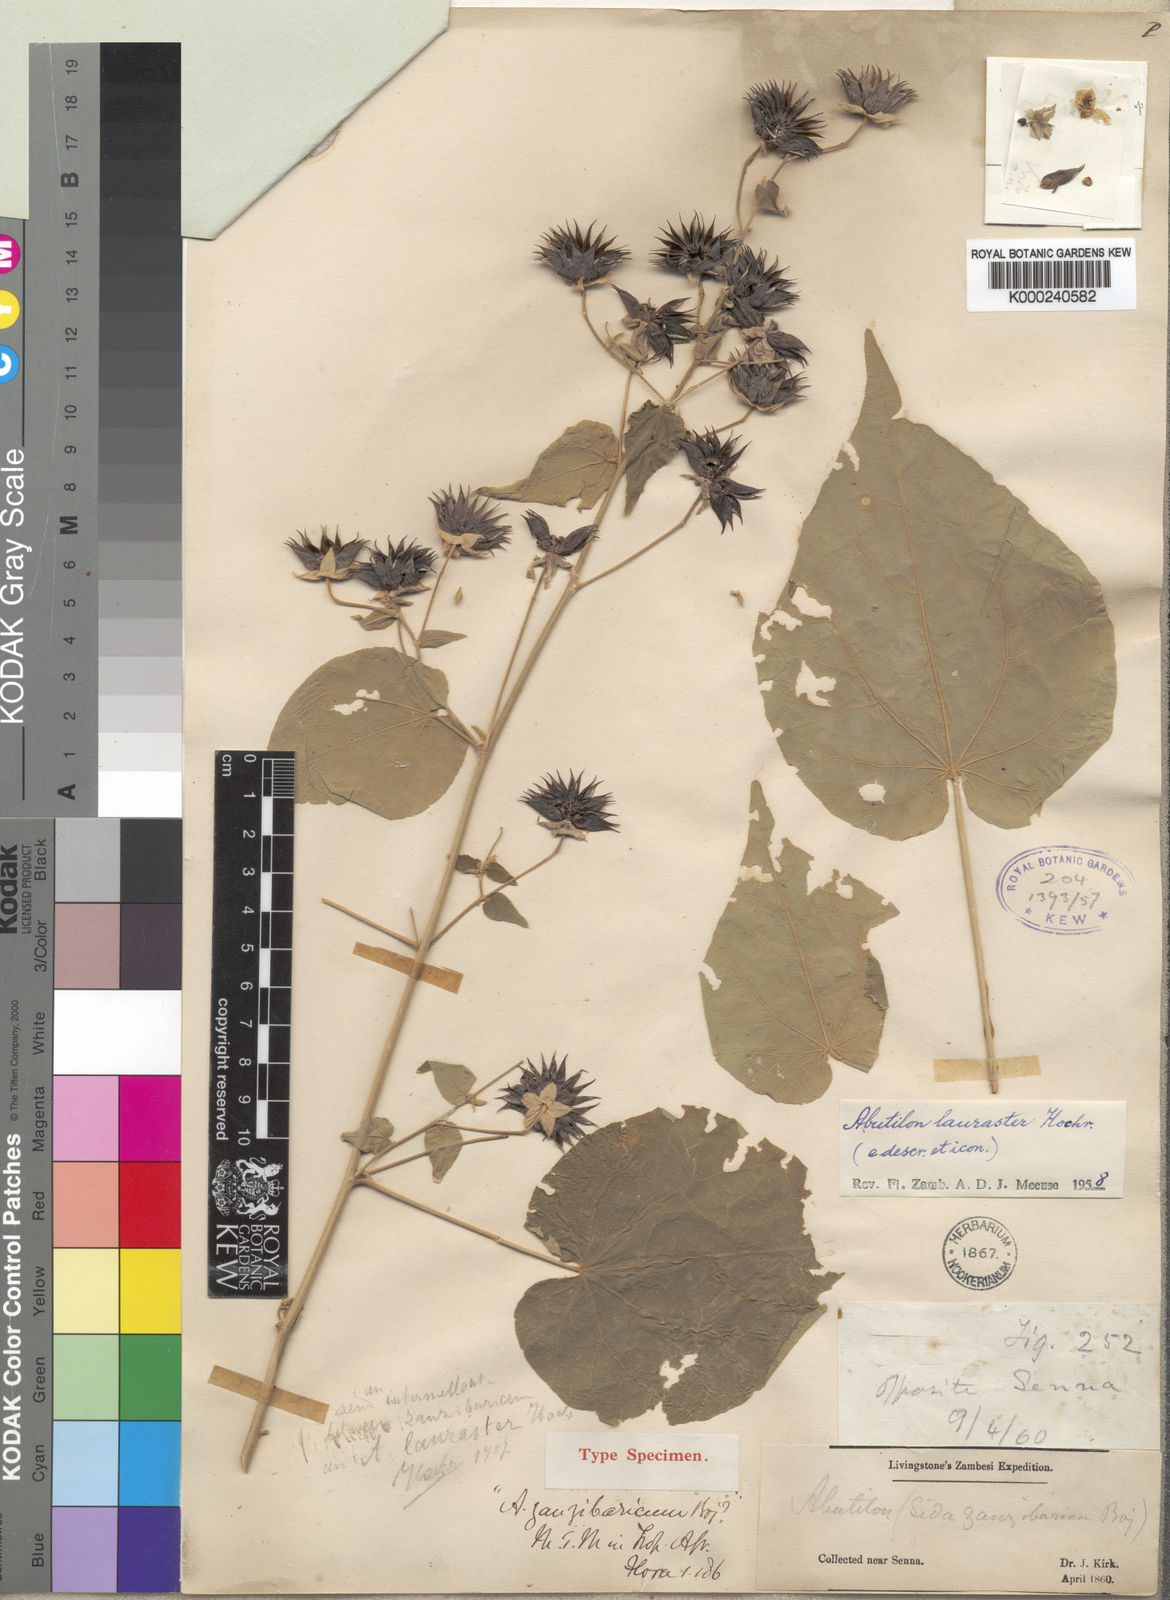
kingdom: Plantae
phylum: Tracheophyta
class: Magnoliopsida
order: Malvales
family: Malvaceae
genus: Abutilon
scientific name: Abutilon lauraster
